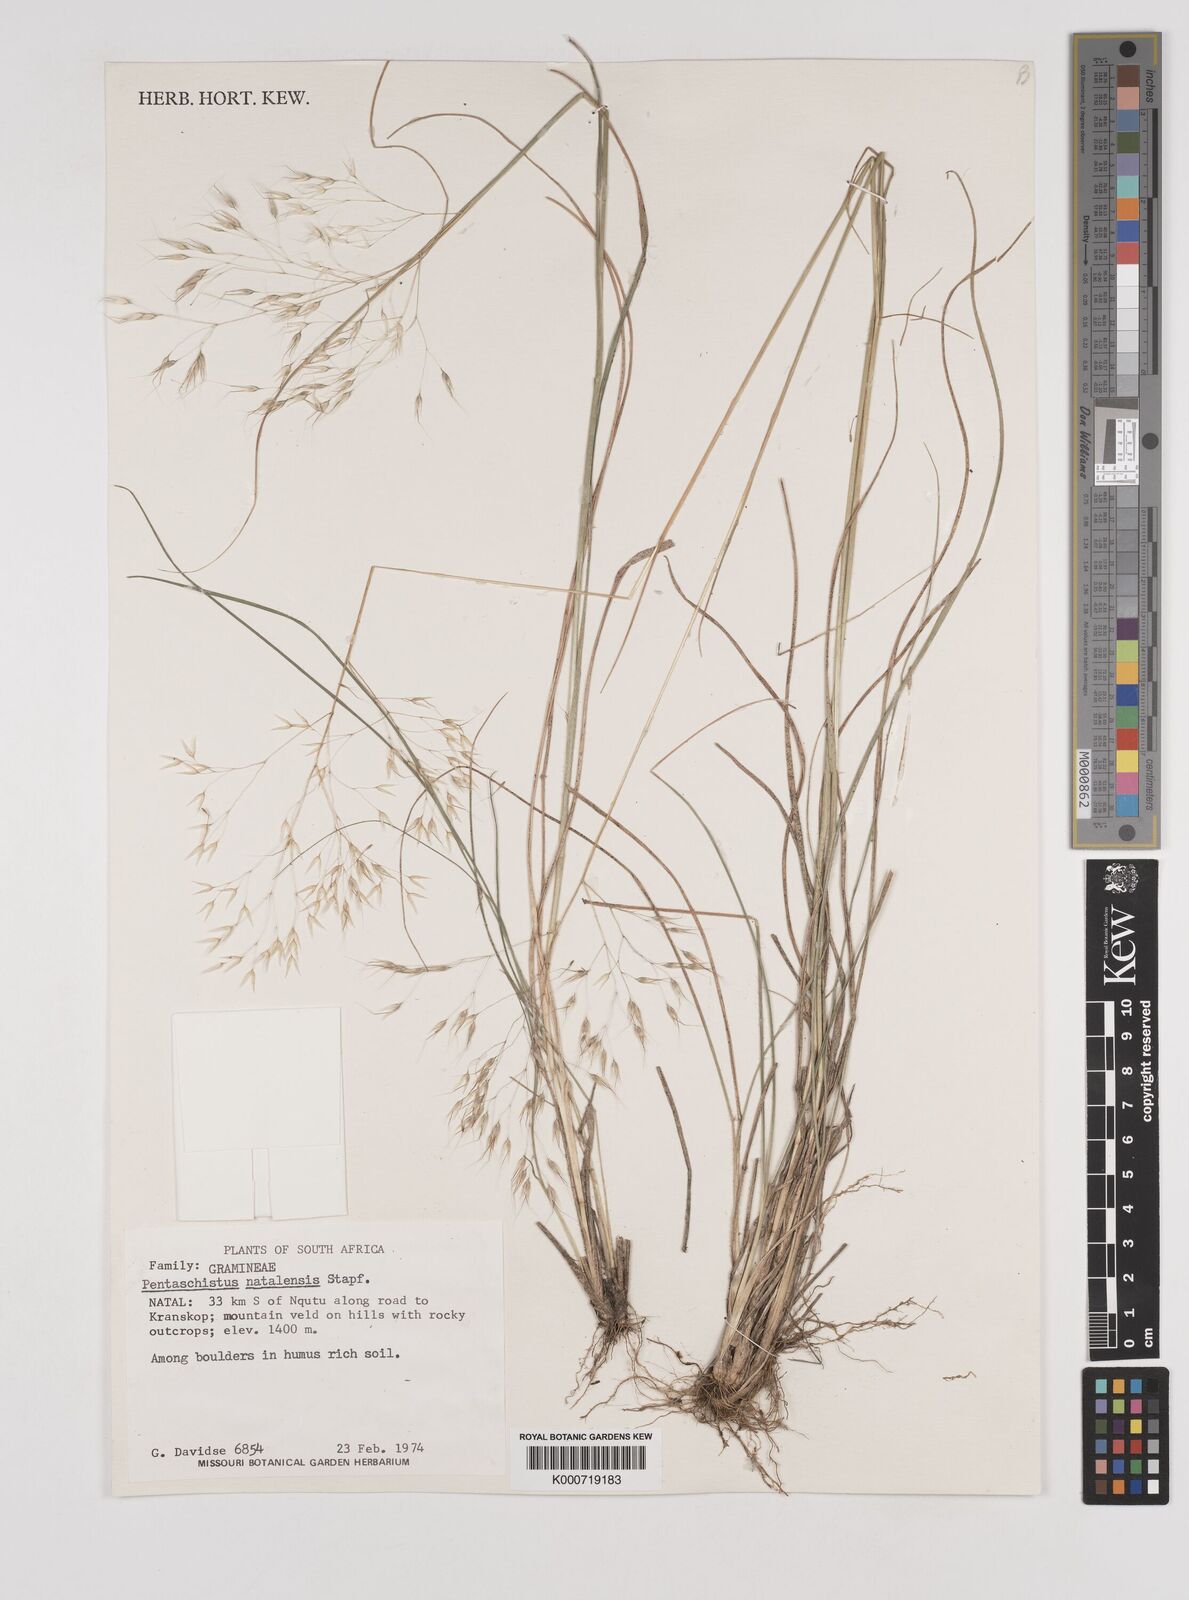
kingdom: Plantae
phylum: Tracheophyta
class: Liliopsida
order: Poales
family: Poaceae
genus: Pentameris
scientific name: Pentameris natalensis
